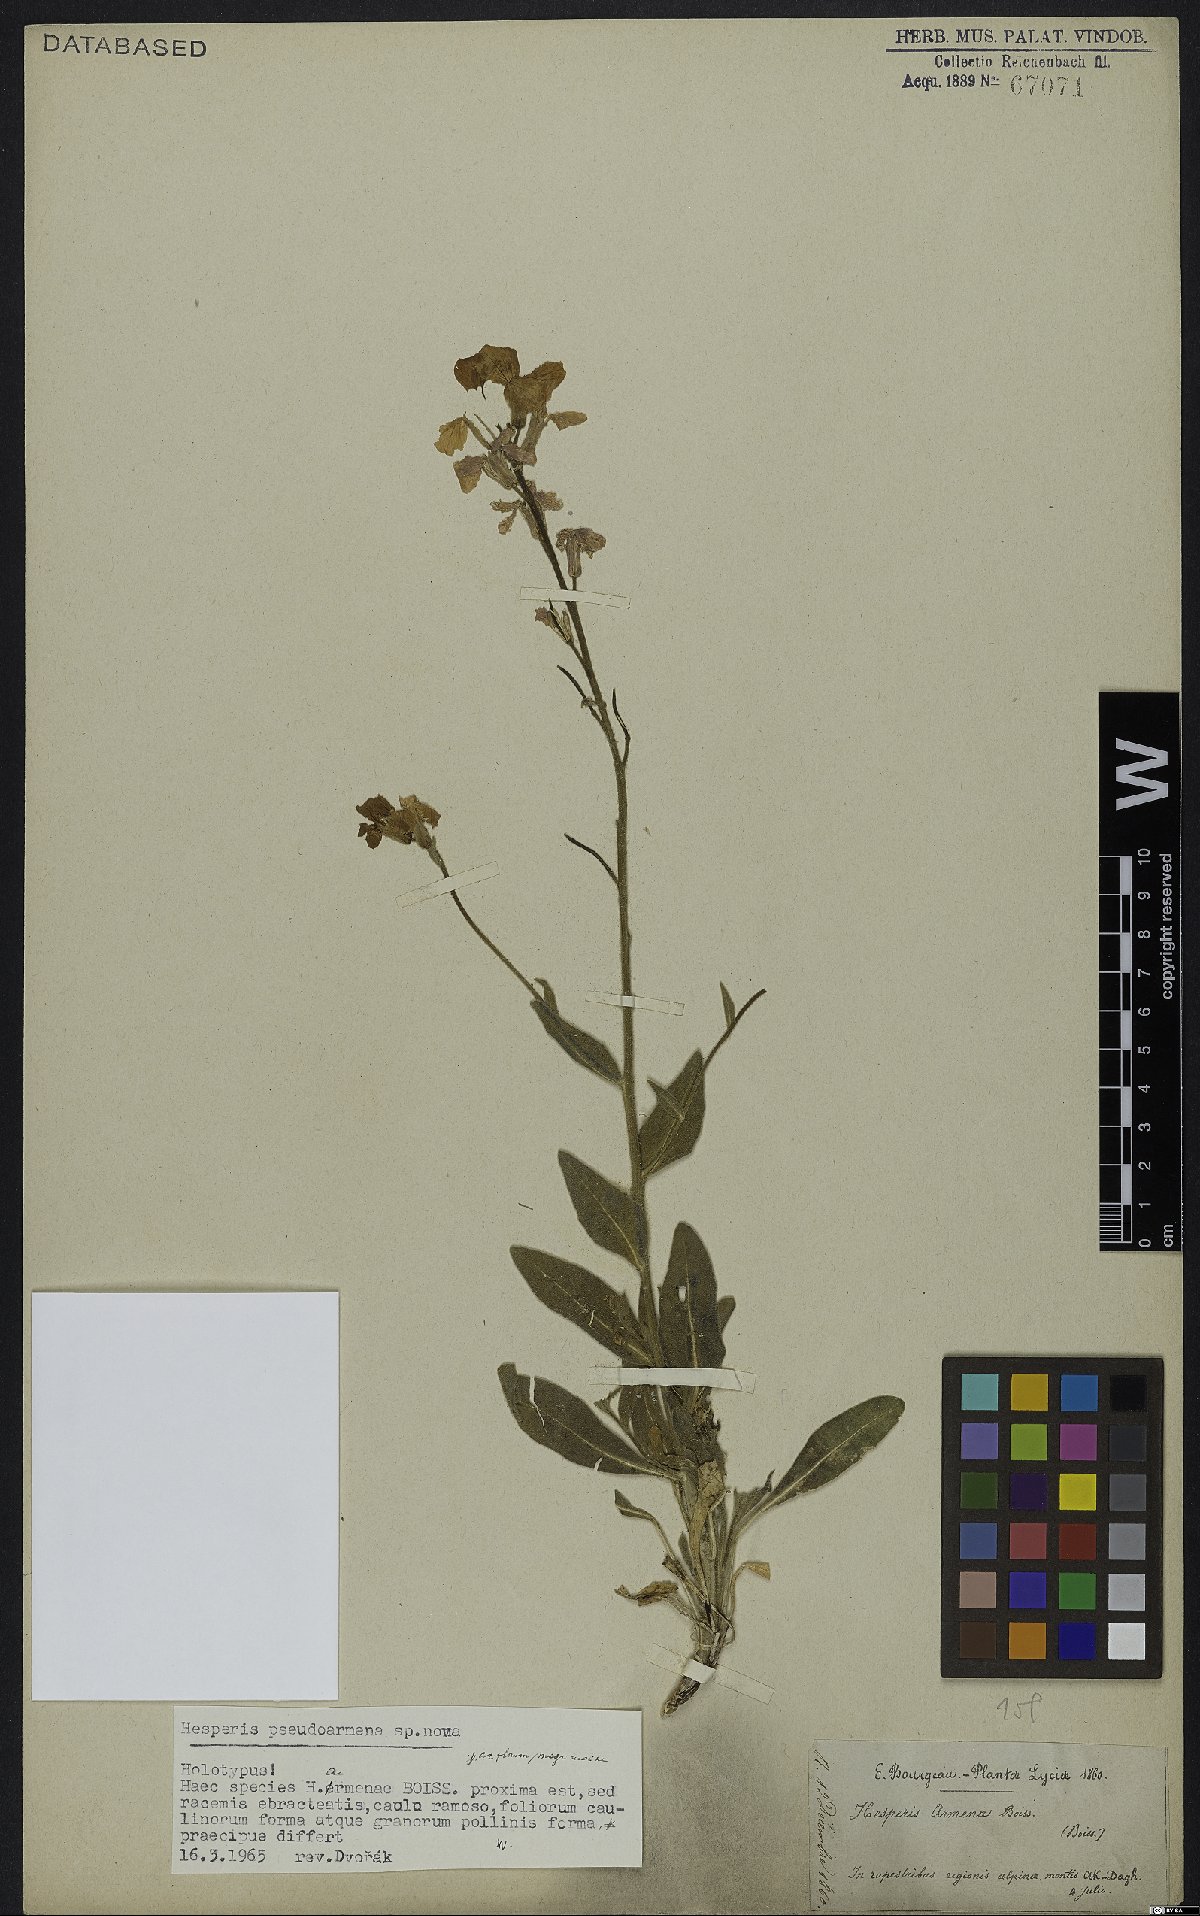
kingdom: Plantae
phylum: Tracheophyta
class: Magnoliopsida
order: Brassicales
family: Brassicaceae
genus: Hesperis
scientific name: Hesperis armena
